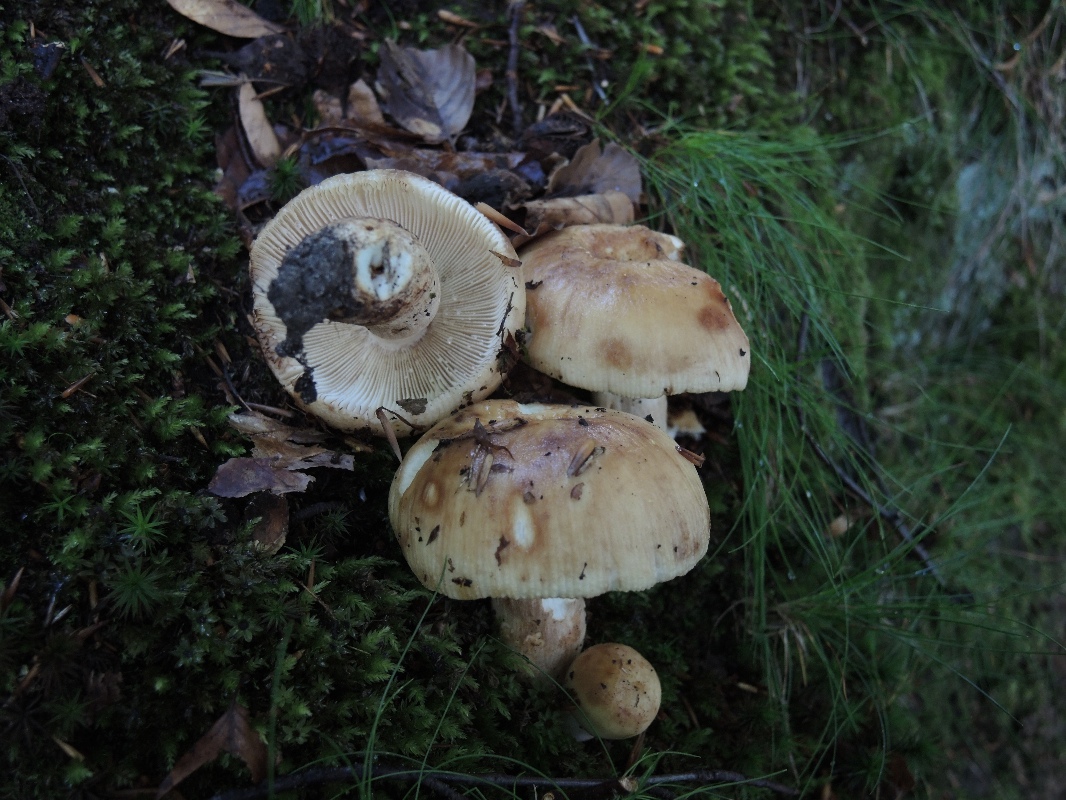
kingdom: Fungi
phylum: Basidiomycota
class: Agaricomycetes
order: Russulales
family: Russulaceae
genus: Russula
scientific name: Russula illota
